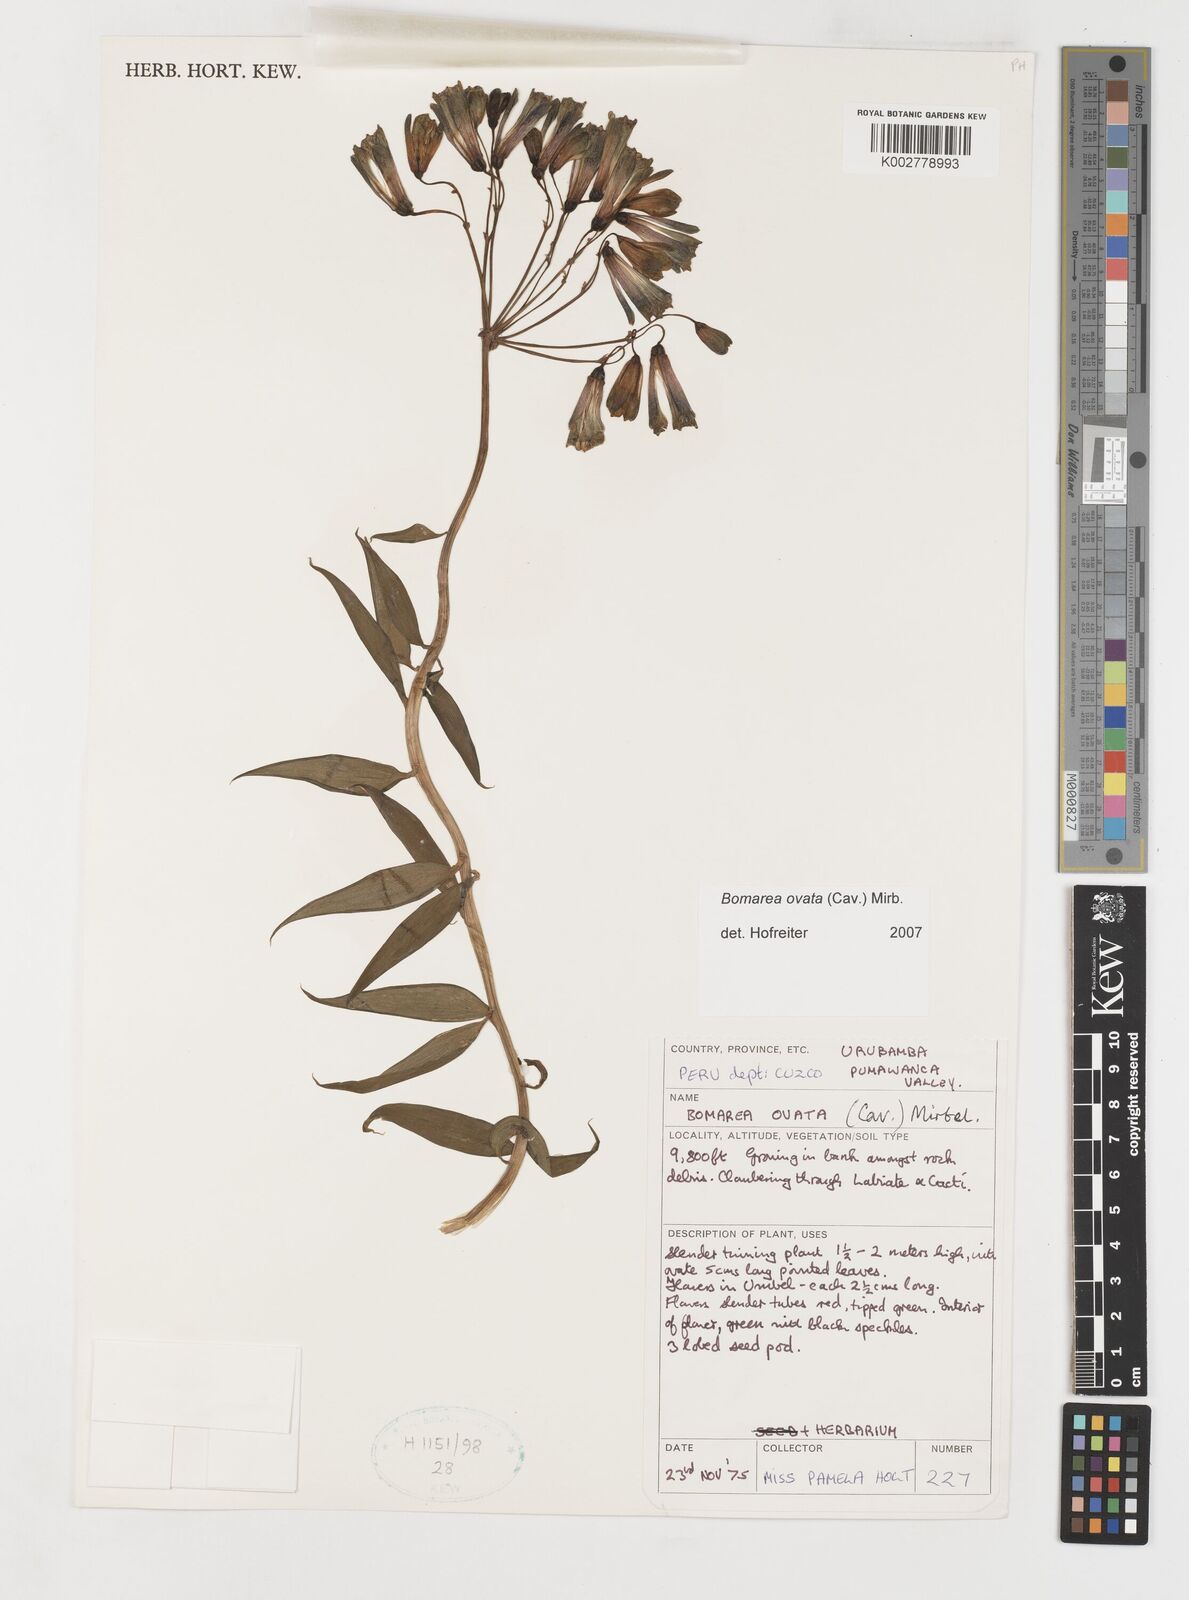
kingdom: Plantae
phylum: Tracheophyta
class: Liliopsida
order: Liliales
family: Alstroemeriaceae
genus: Bomarea
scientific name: Bomarea ovata
